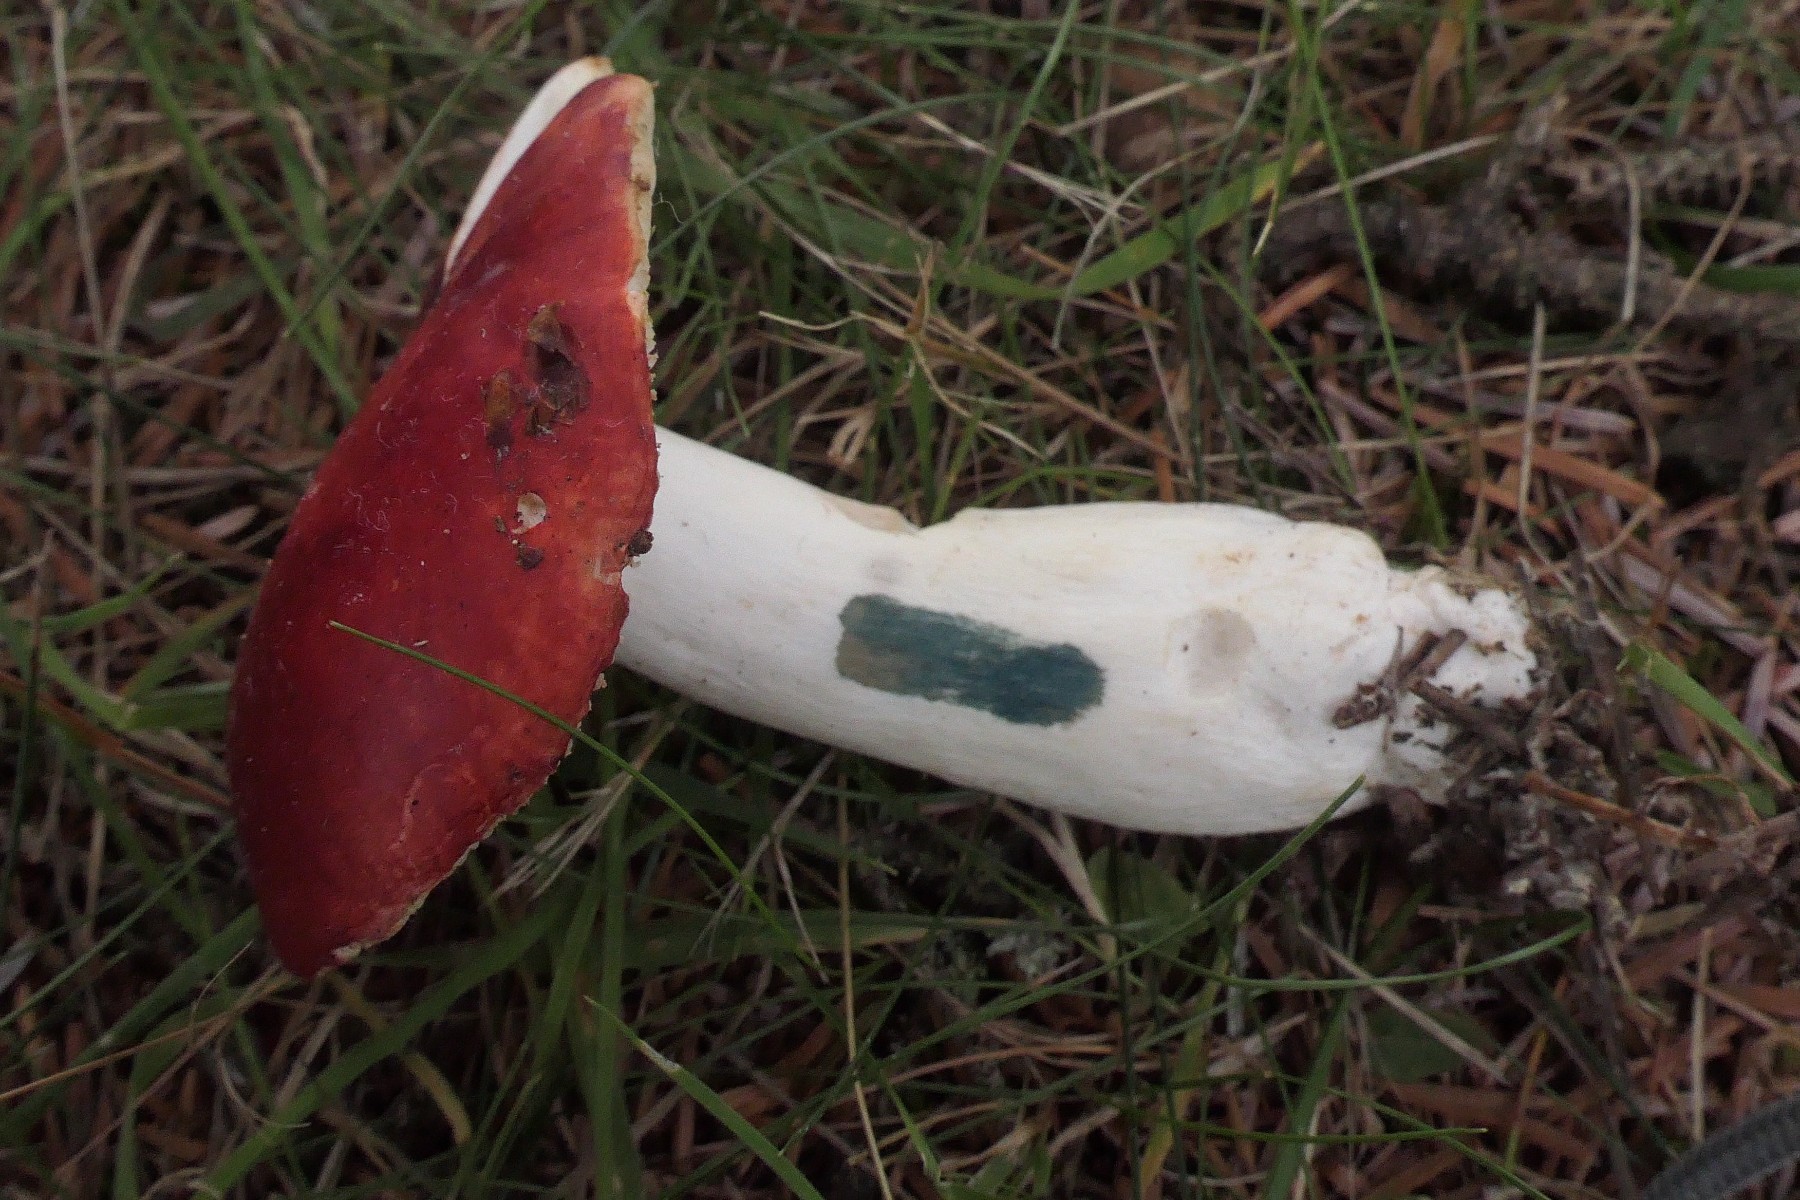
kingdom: Fungi
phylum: Basidiomycota
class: Agaricomycetes
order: Russulales
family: Russulaceae
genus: Russula
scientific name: Russula emetica
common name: stor gift-skørhat
